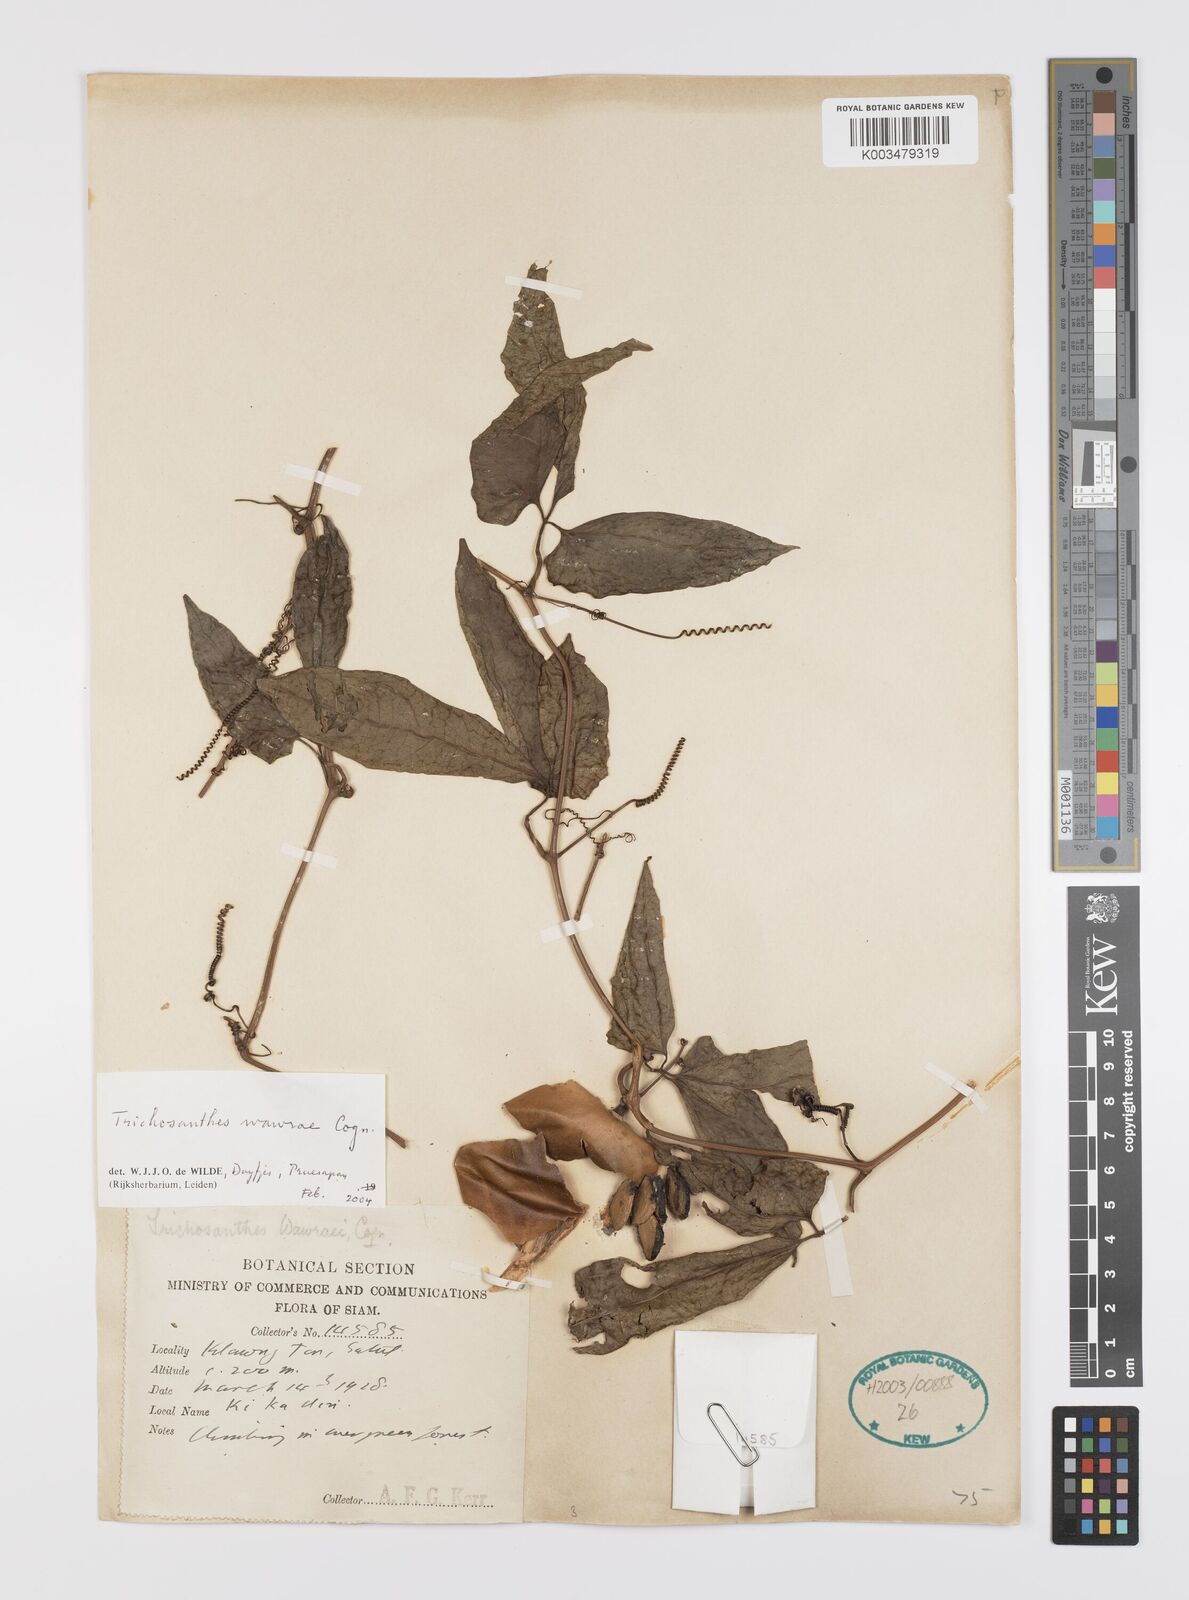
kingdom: Plantae
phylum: Tracheophyta
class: Magnoliopsida
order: Cucurbitales
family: Cucurbitaceae
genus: Trichosanthes
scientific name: Trichosanthes wawrae
